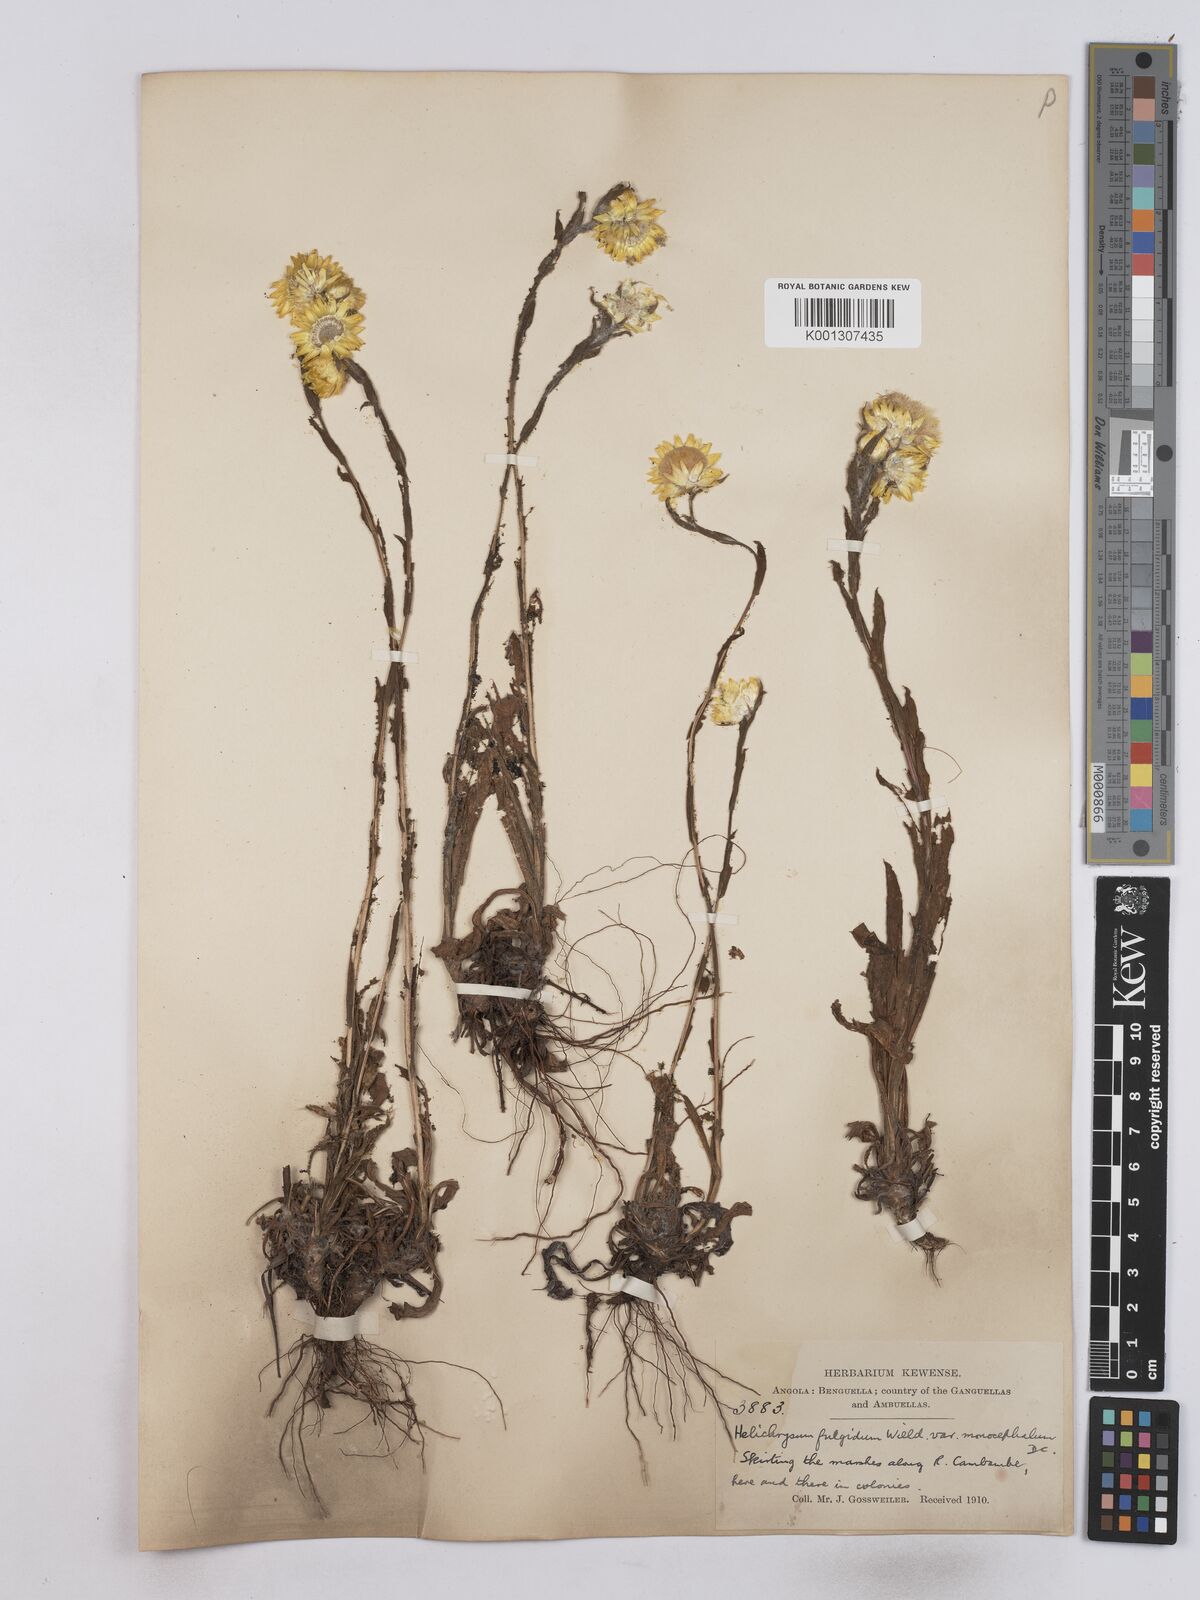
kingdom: Plantae
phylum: Tracheophyta
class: Magnoliopsida
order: Asterales
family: Asteraceae
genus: Helichrysum
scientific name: Helichrysum aureum
